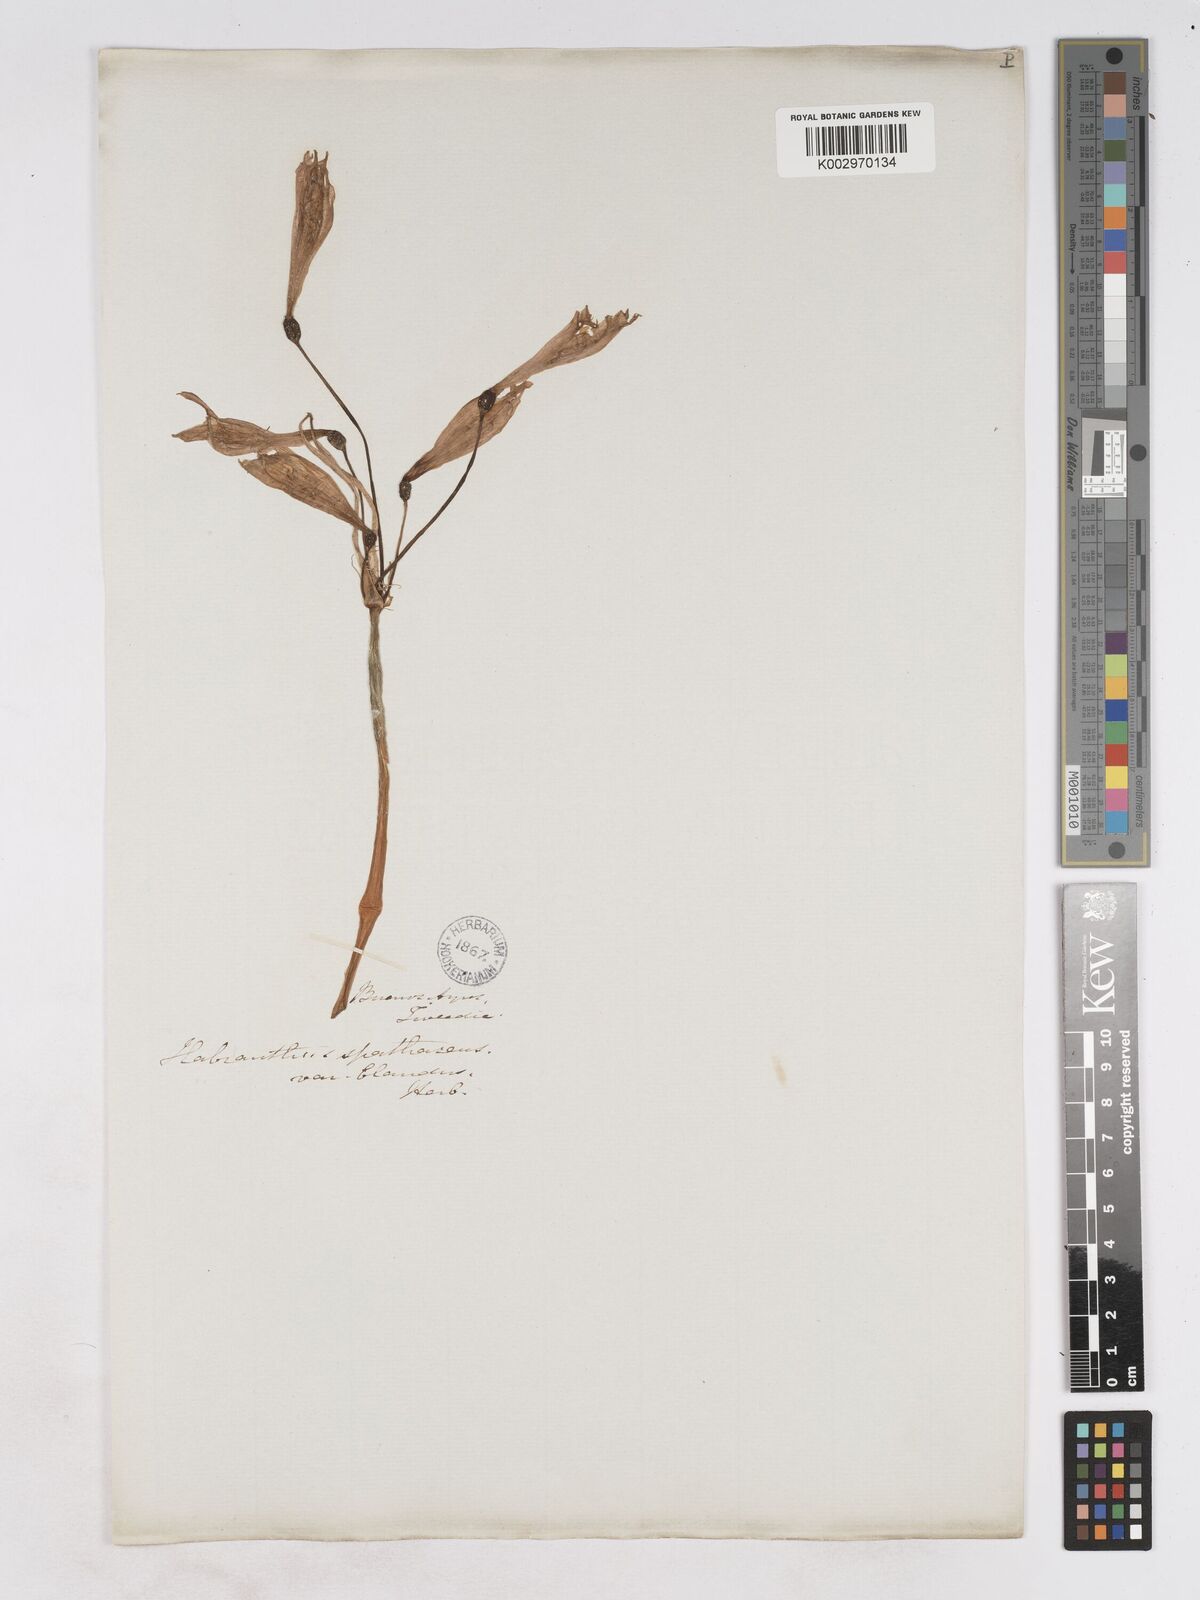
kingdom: Plantae
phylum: Tracheophyta
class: Liliopsida
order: Asparagales
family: Amaryllidaceae
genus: Zephyranthes
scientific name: Zephyranthes bifida
